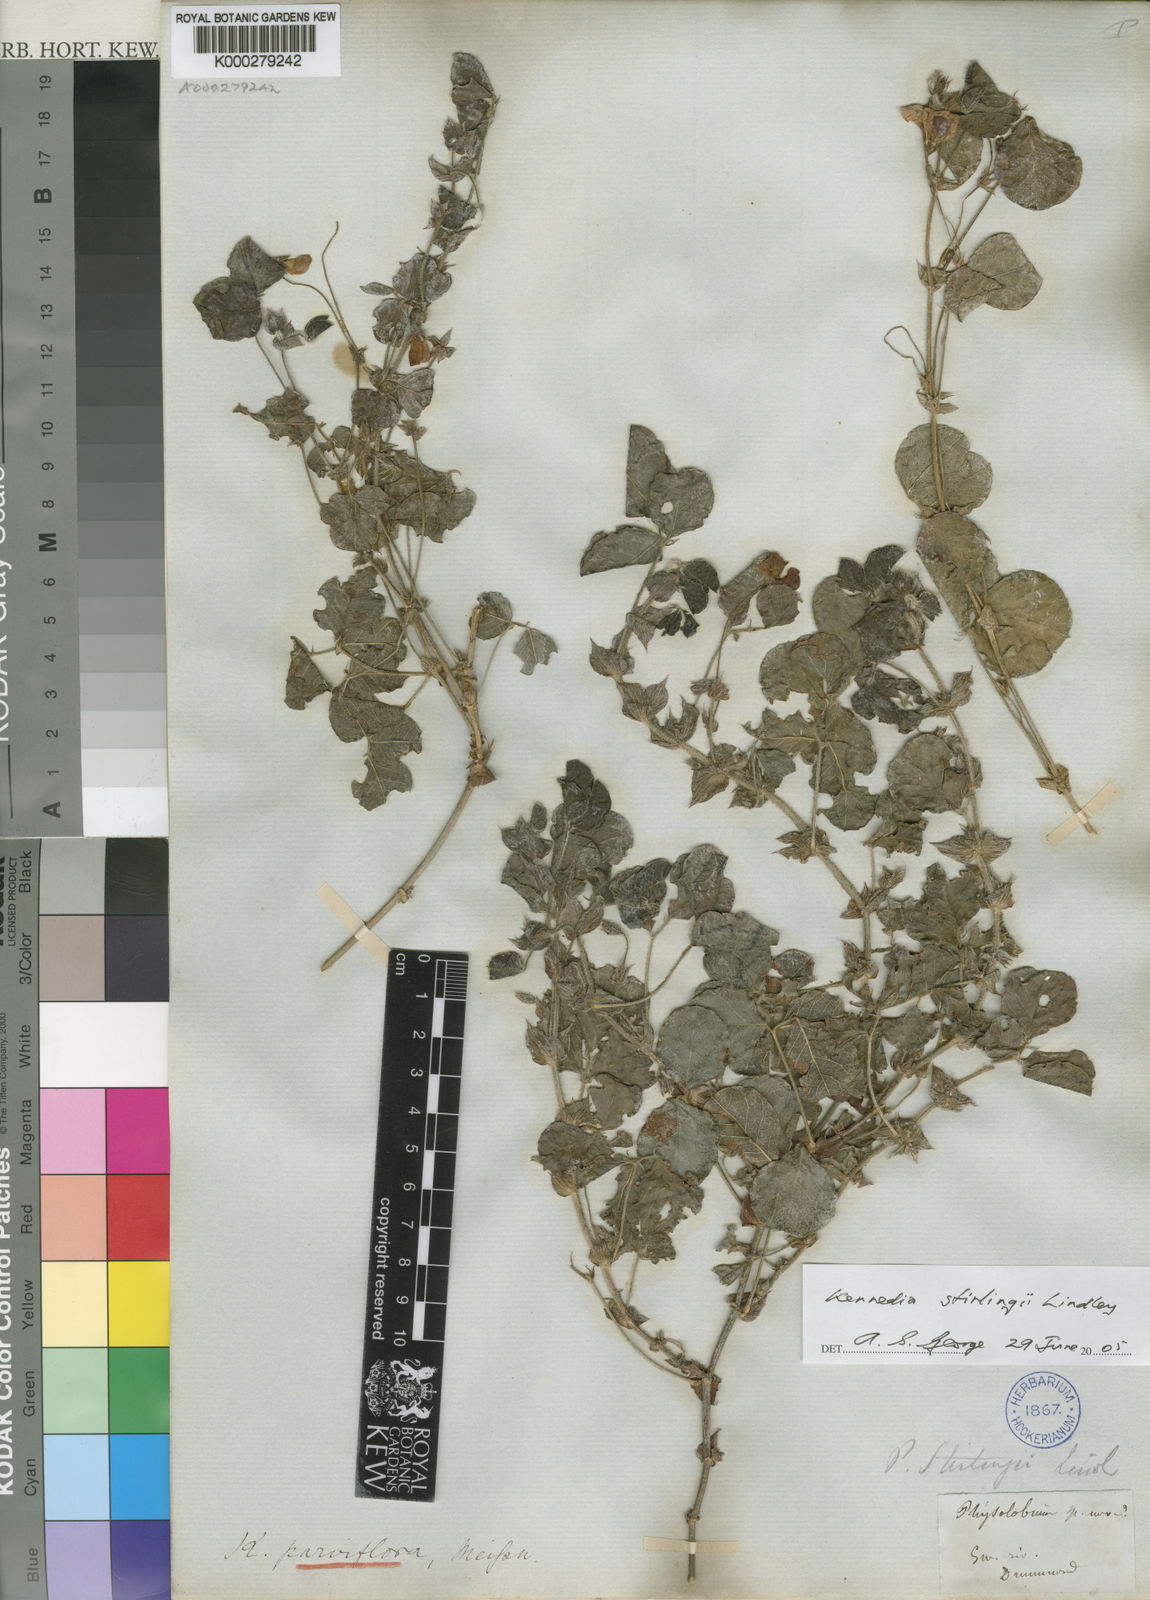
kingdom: Plantae
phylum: Tracheophyta
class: Magnoliopsida
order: Fabales
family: Fabaceae
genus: Kennedia
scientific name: Kennedia stirlingii
